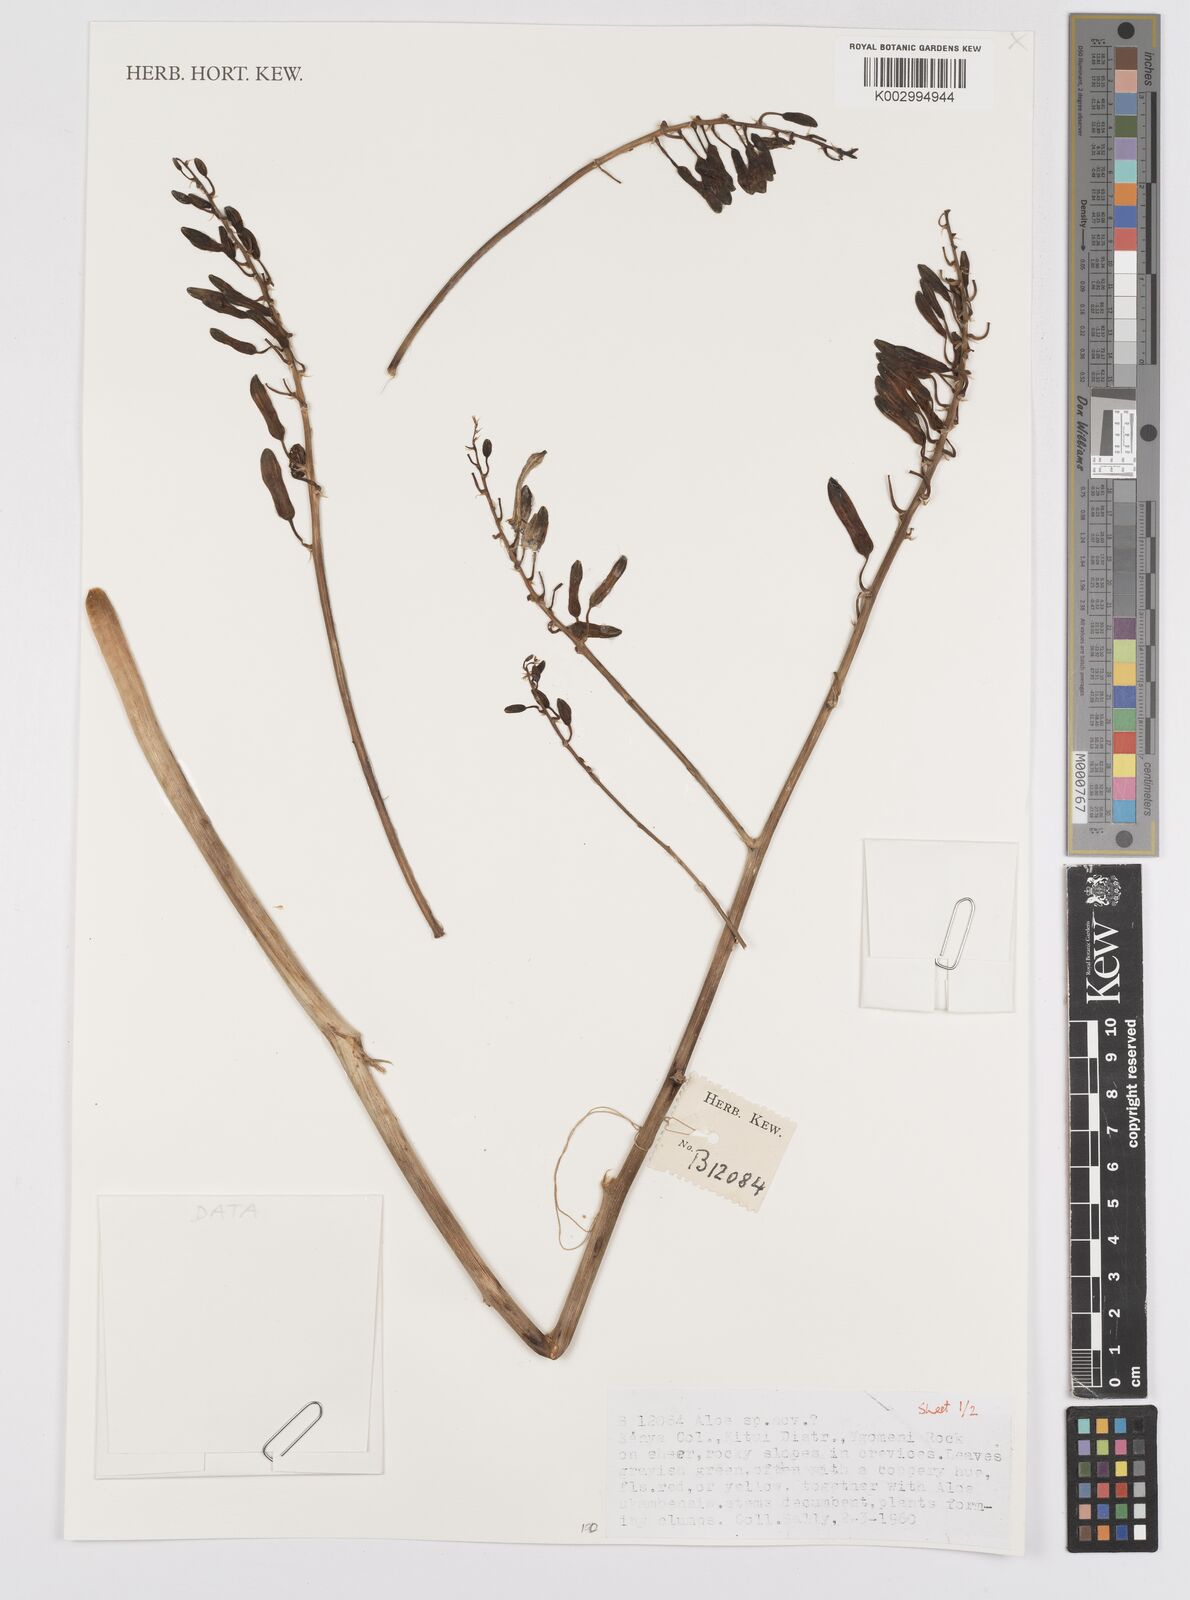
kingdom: Plantae
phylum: Tracheophyta
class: Liliopsida
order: Asparagales
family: Asphodelaceae
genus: Aloe
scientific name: Aloe
